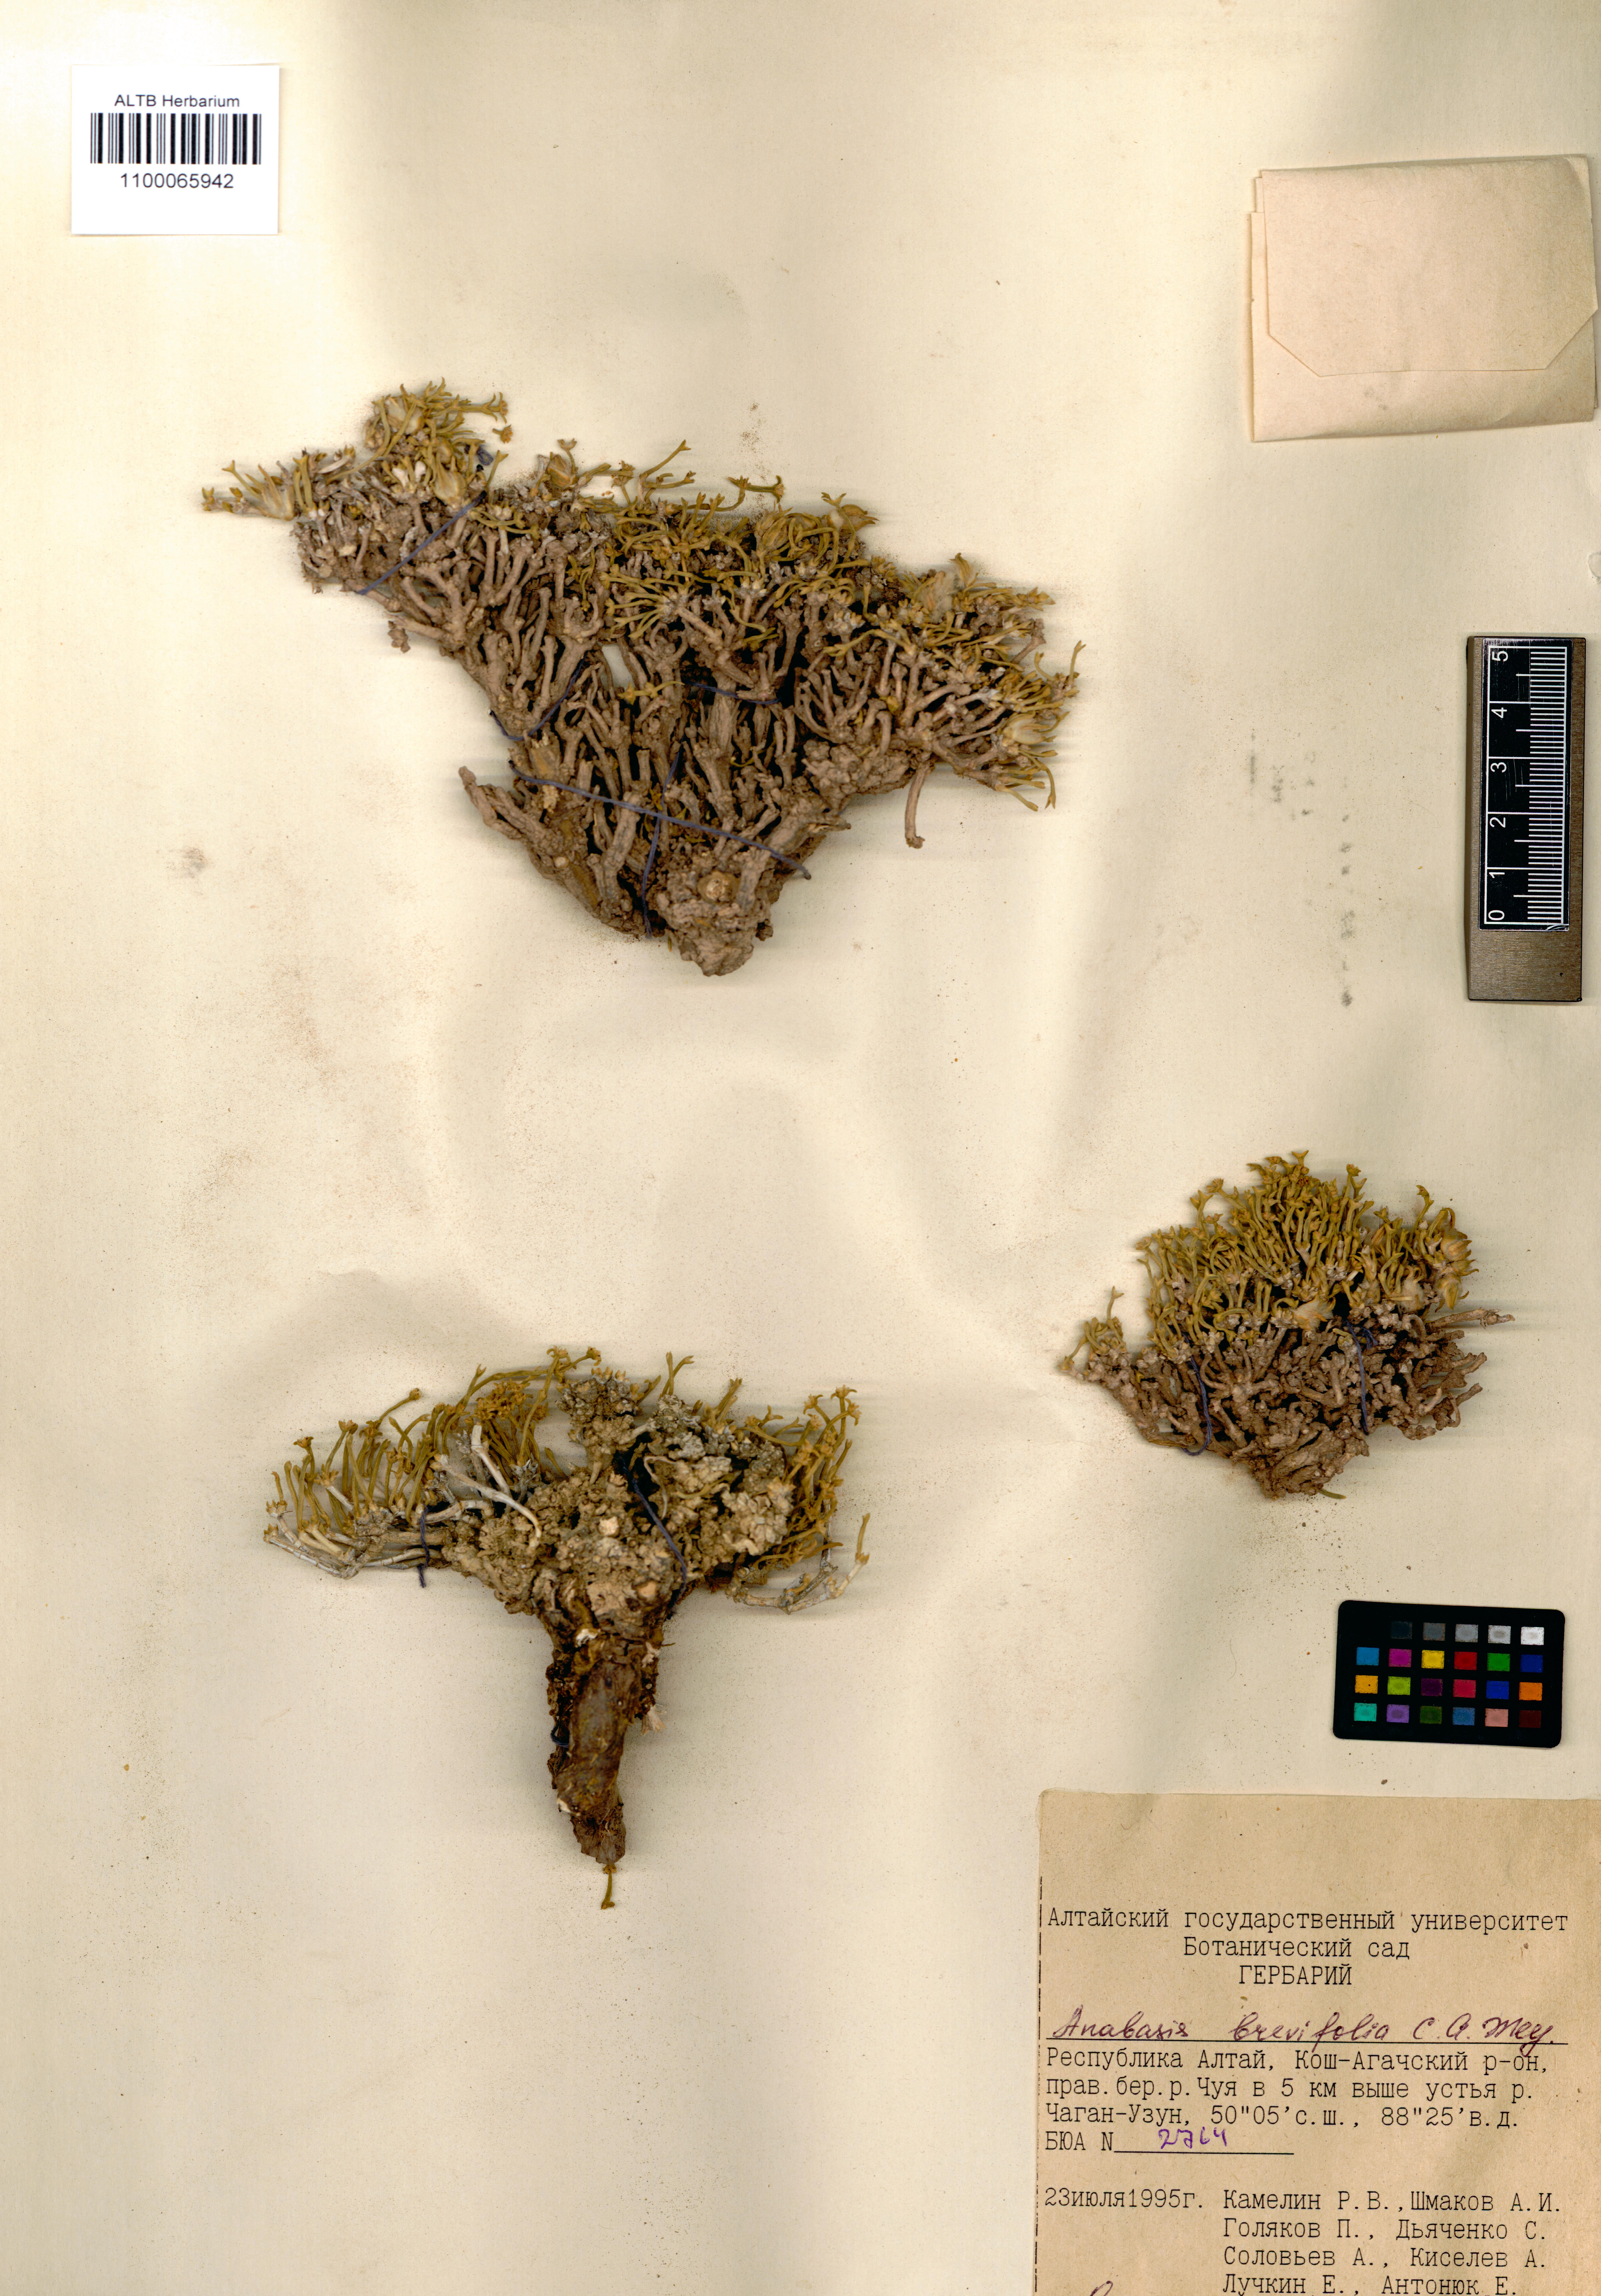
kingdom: Plantae
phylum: Tracheophyta
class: Magnoliopsida
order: Caryophyllales
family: Amaranthaceae
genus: Anabasis
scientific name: Anabasis brevifolia
